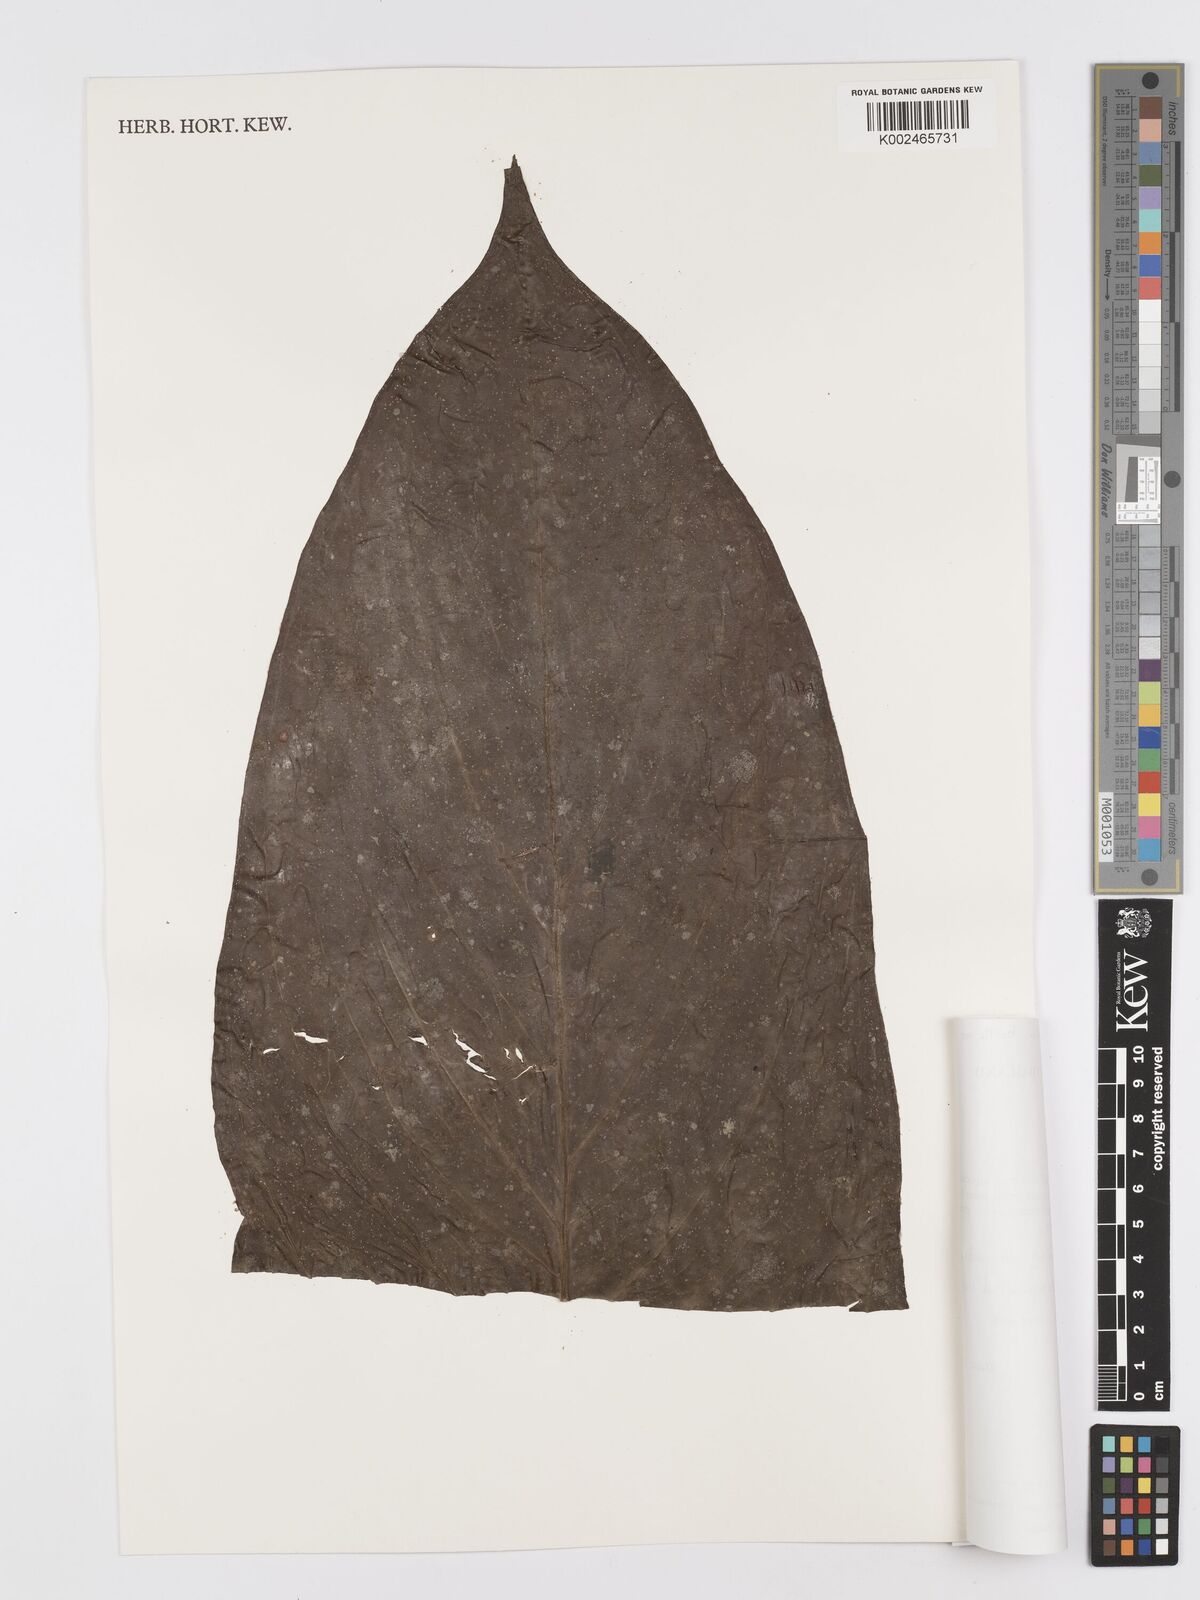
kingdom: Plantae
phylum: Tracheophyta
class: Liliopsida
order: Alismatales
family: Araceae
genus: Rhaphidophora
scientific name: Rhaphidophora hookeri
